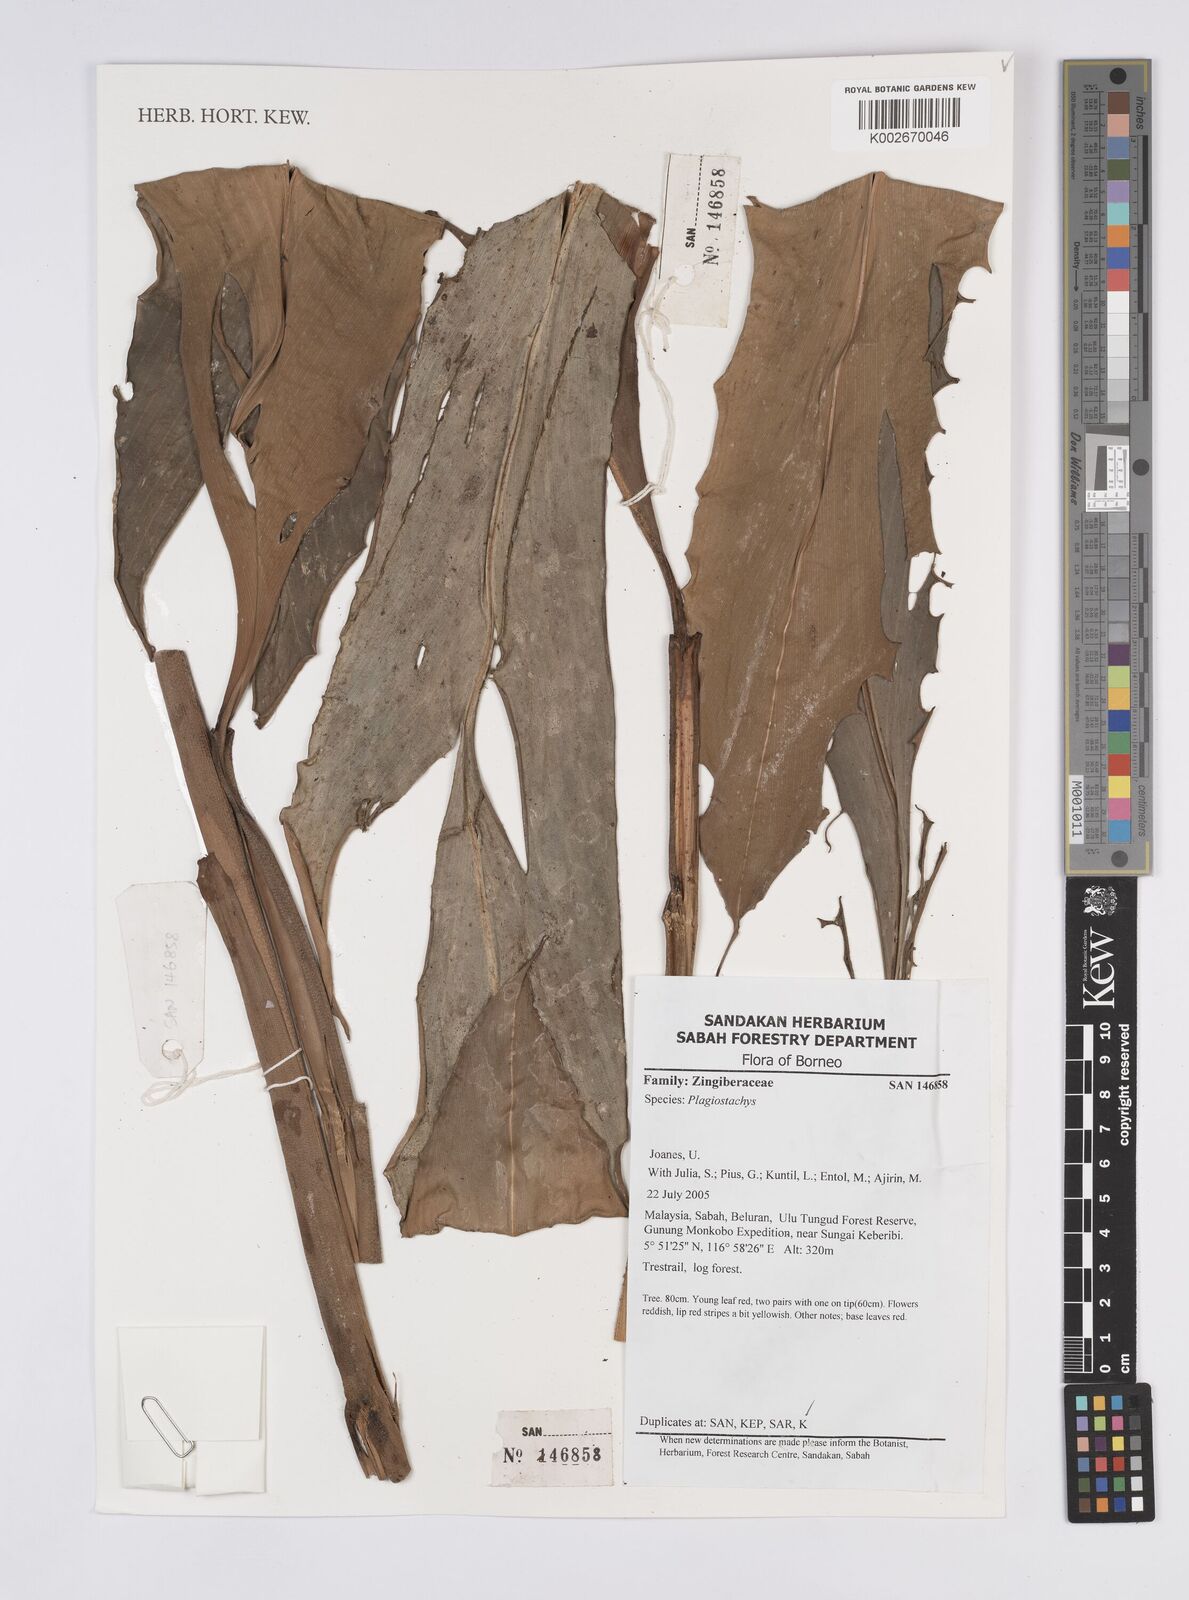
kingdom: Plantae
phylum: Tracheophyta
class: Liliopsida
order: Zingiberales
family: Zingiberaceae
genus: Plagiostachys
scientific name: Plagiostachys
